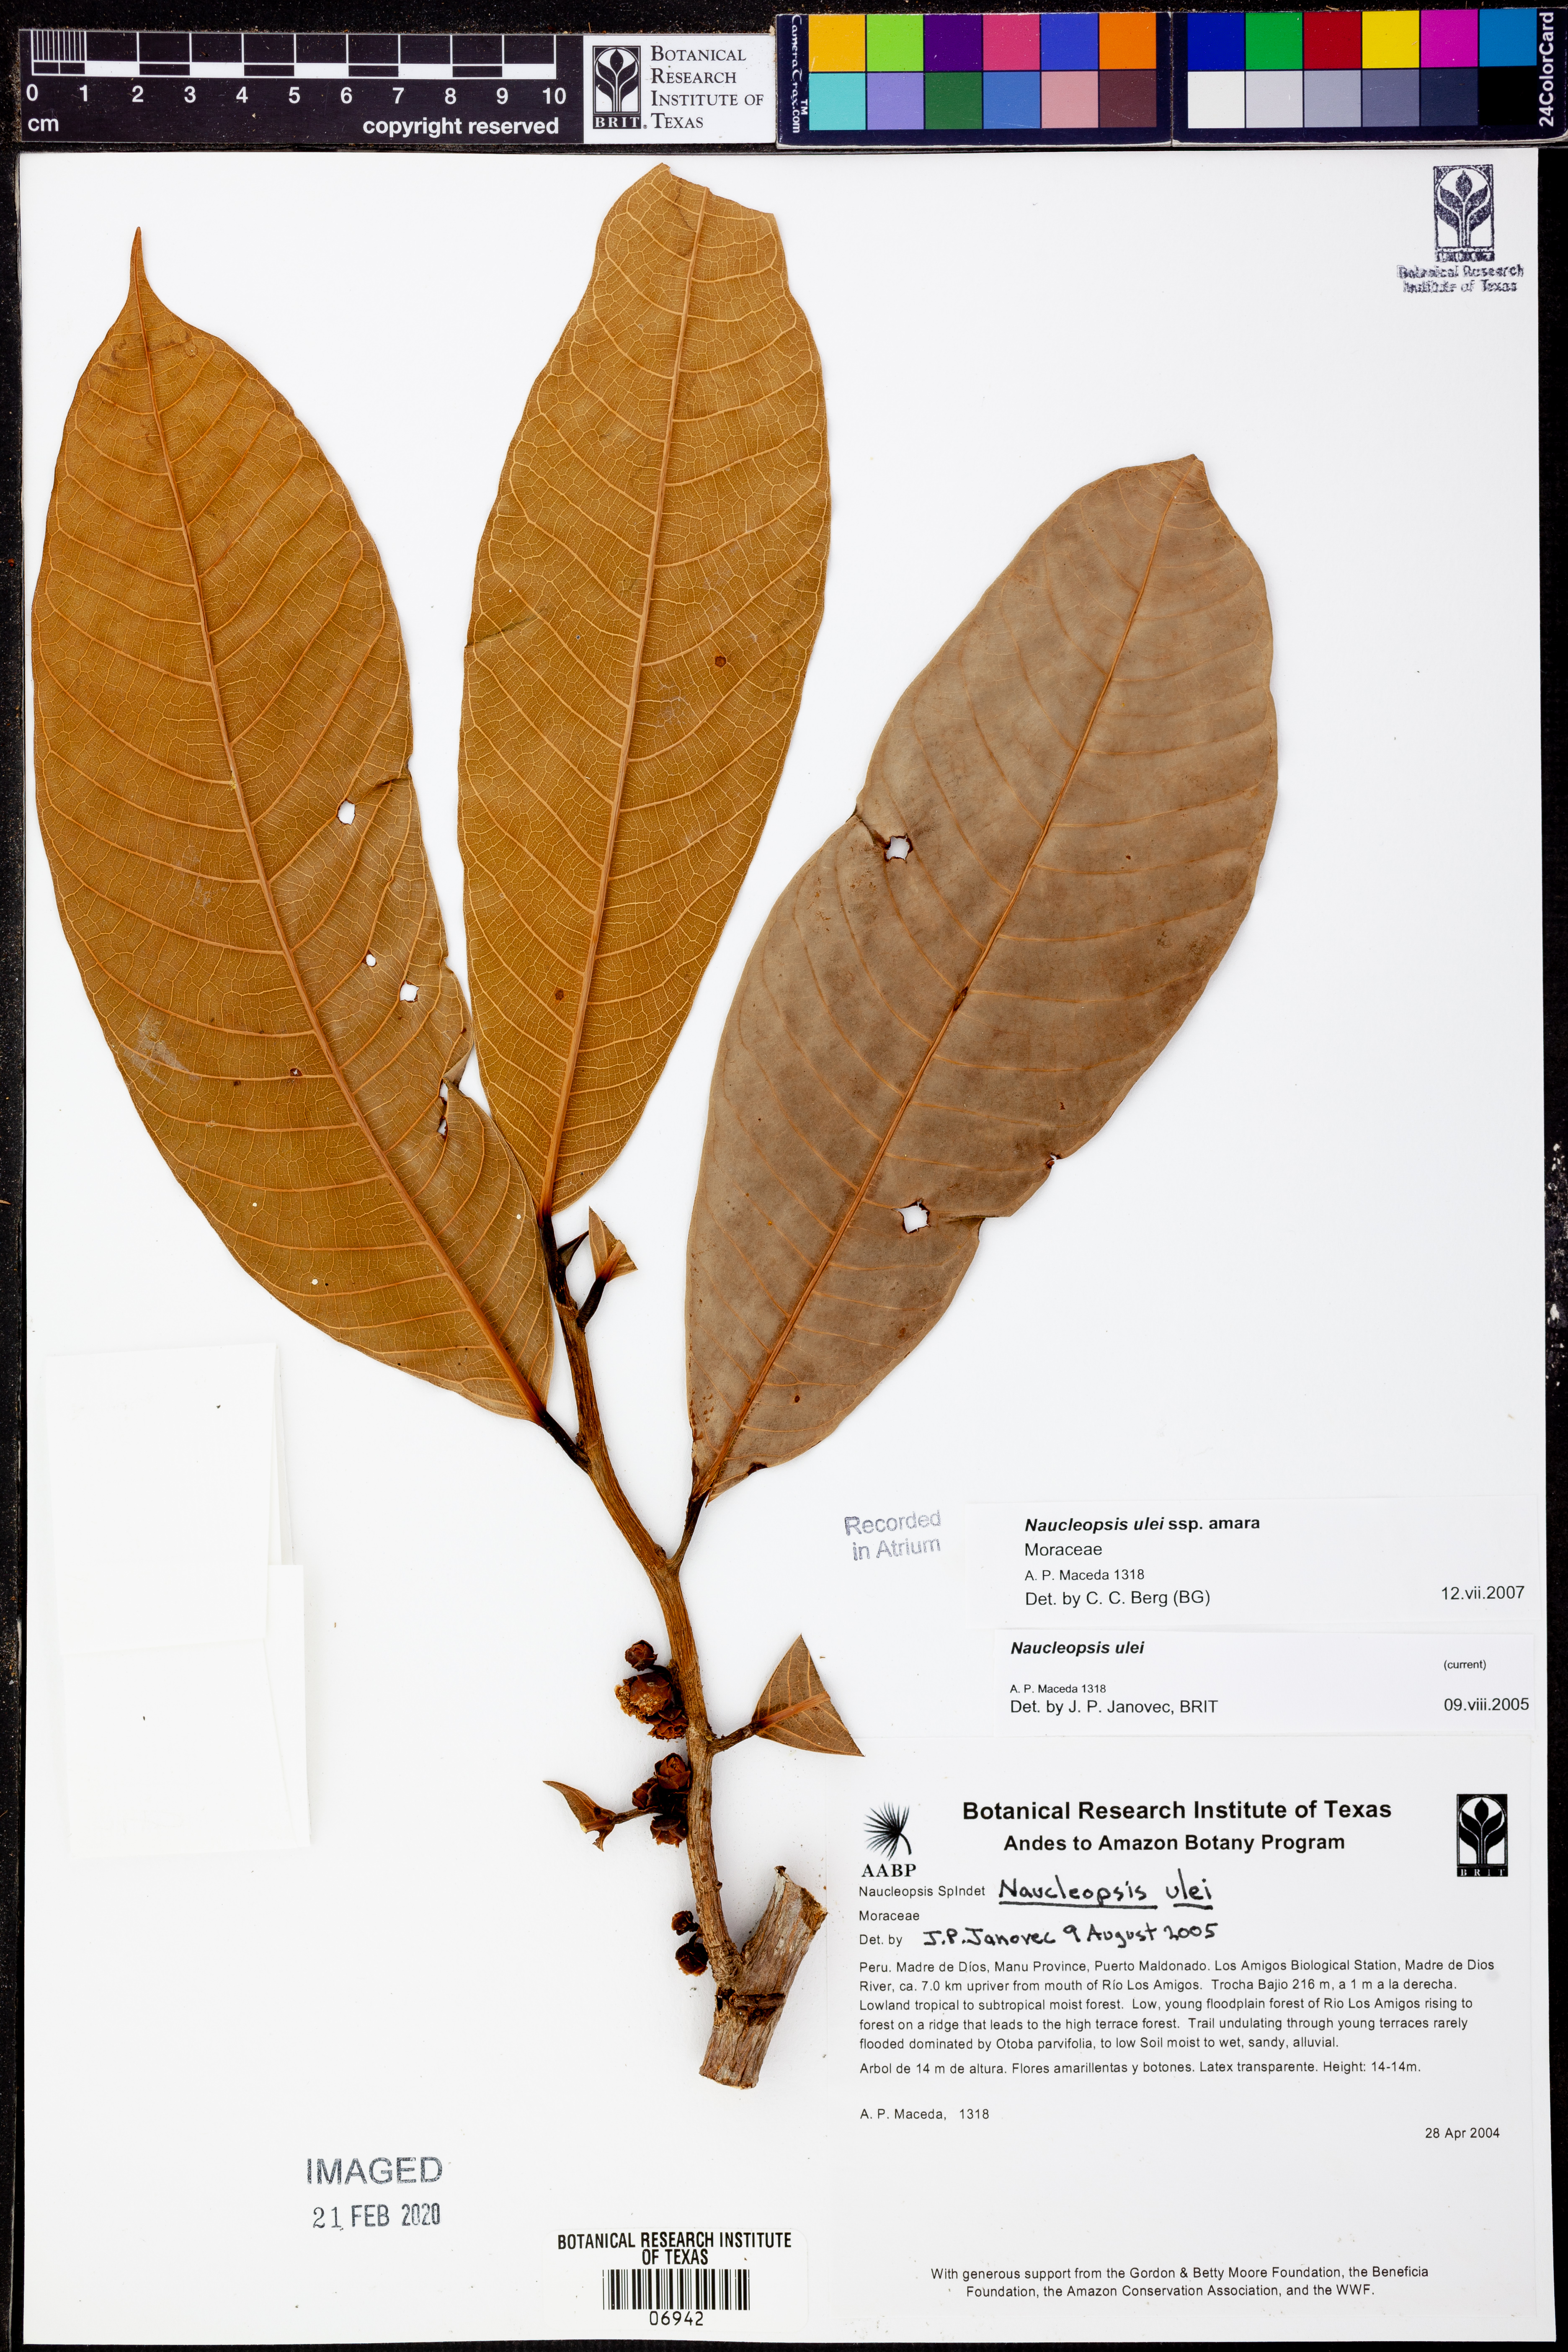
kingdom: Plantae
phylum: Tracheophyta
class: Magnoliopsida
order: Rosales
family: Moraceae
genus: Naucleopsis
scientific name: Naucleopsis
